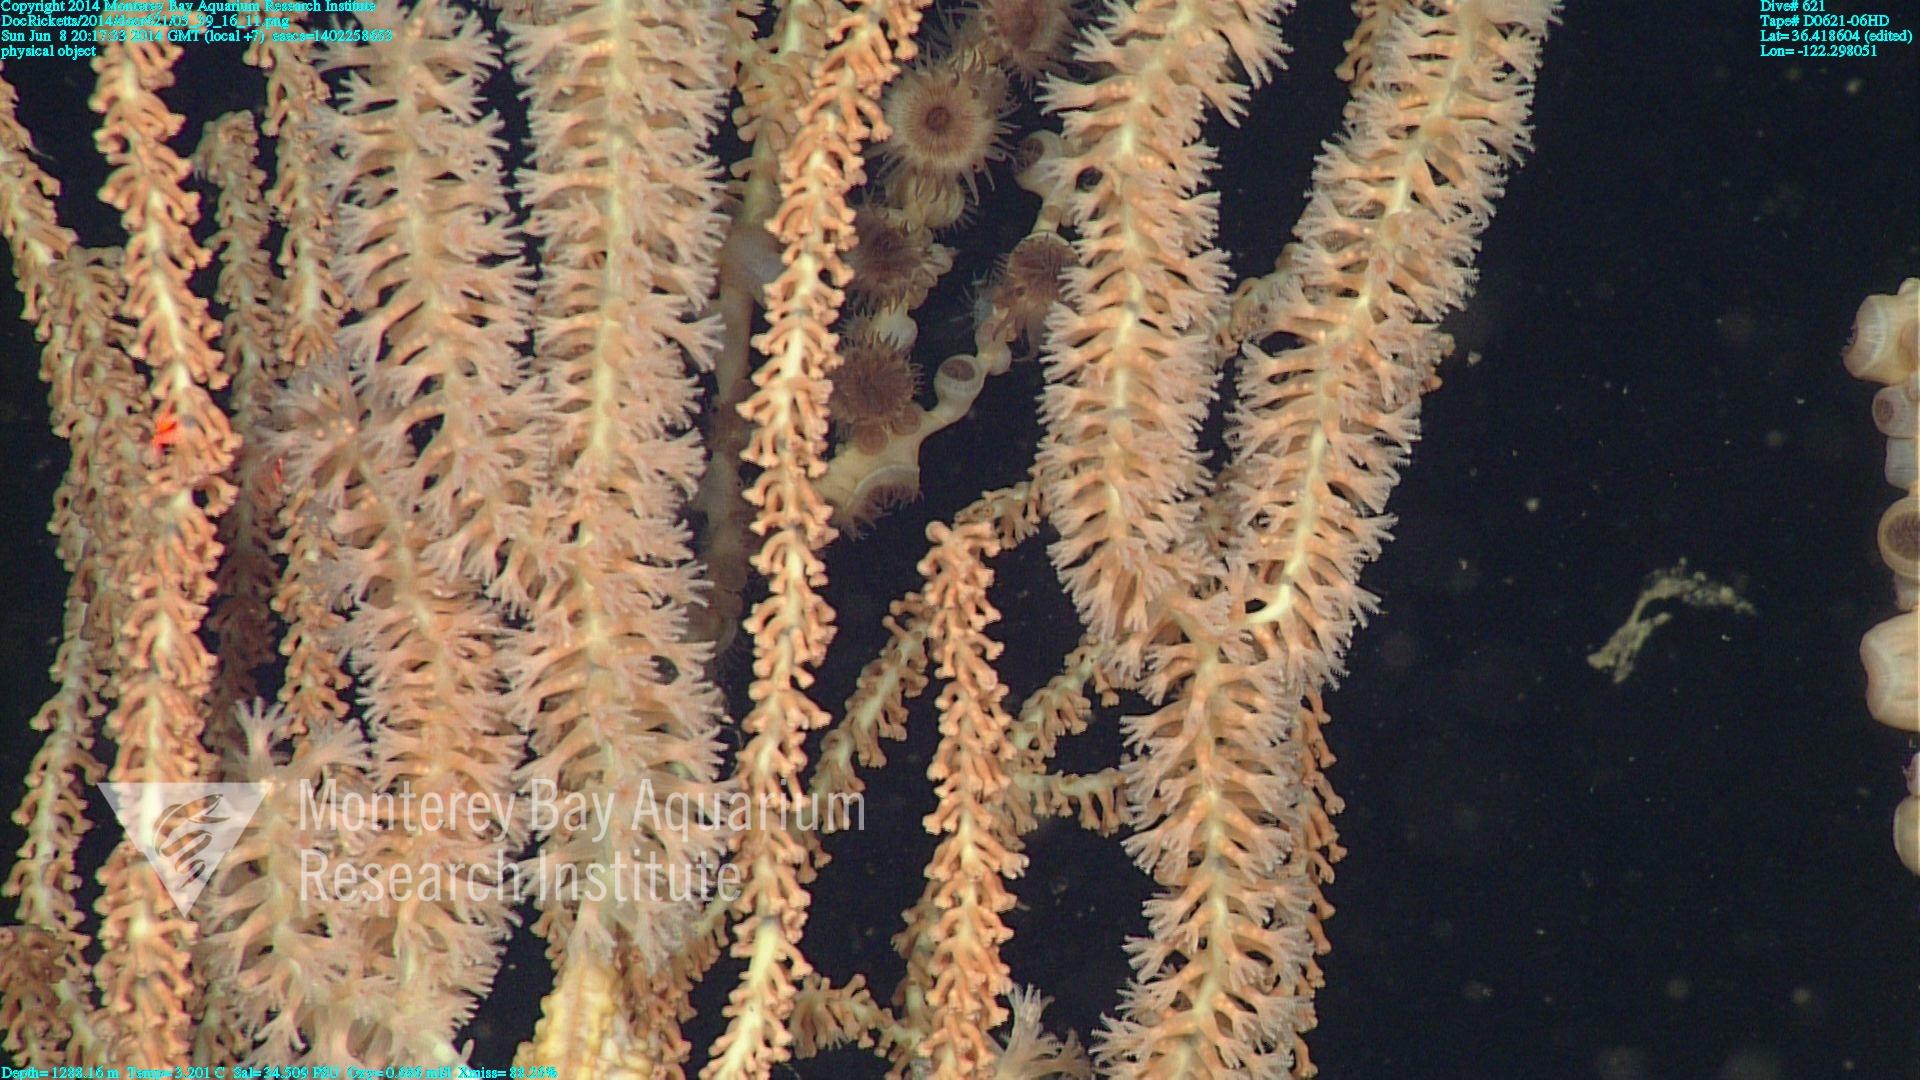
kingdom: Animalia
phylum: Cnidaria
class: Anthozoa
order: Scleralcyonacea
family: Keratoisididae
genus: Keratoisis
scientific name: Keratoisis
